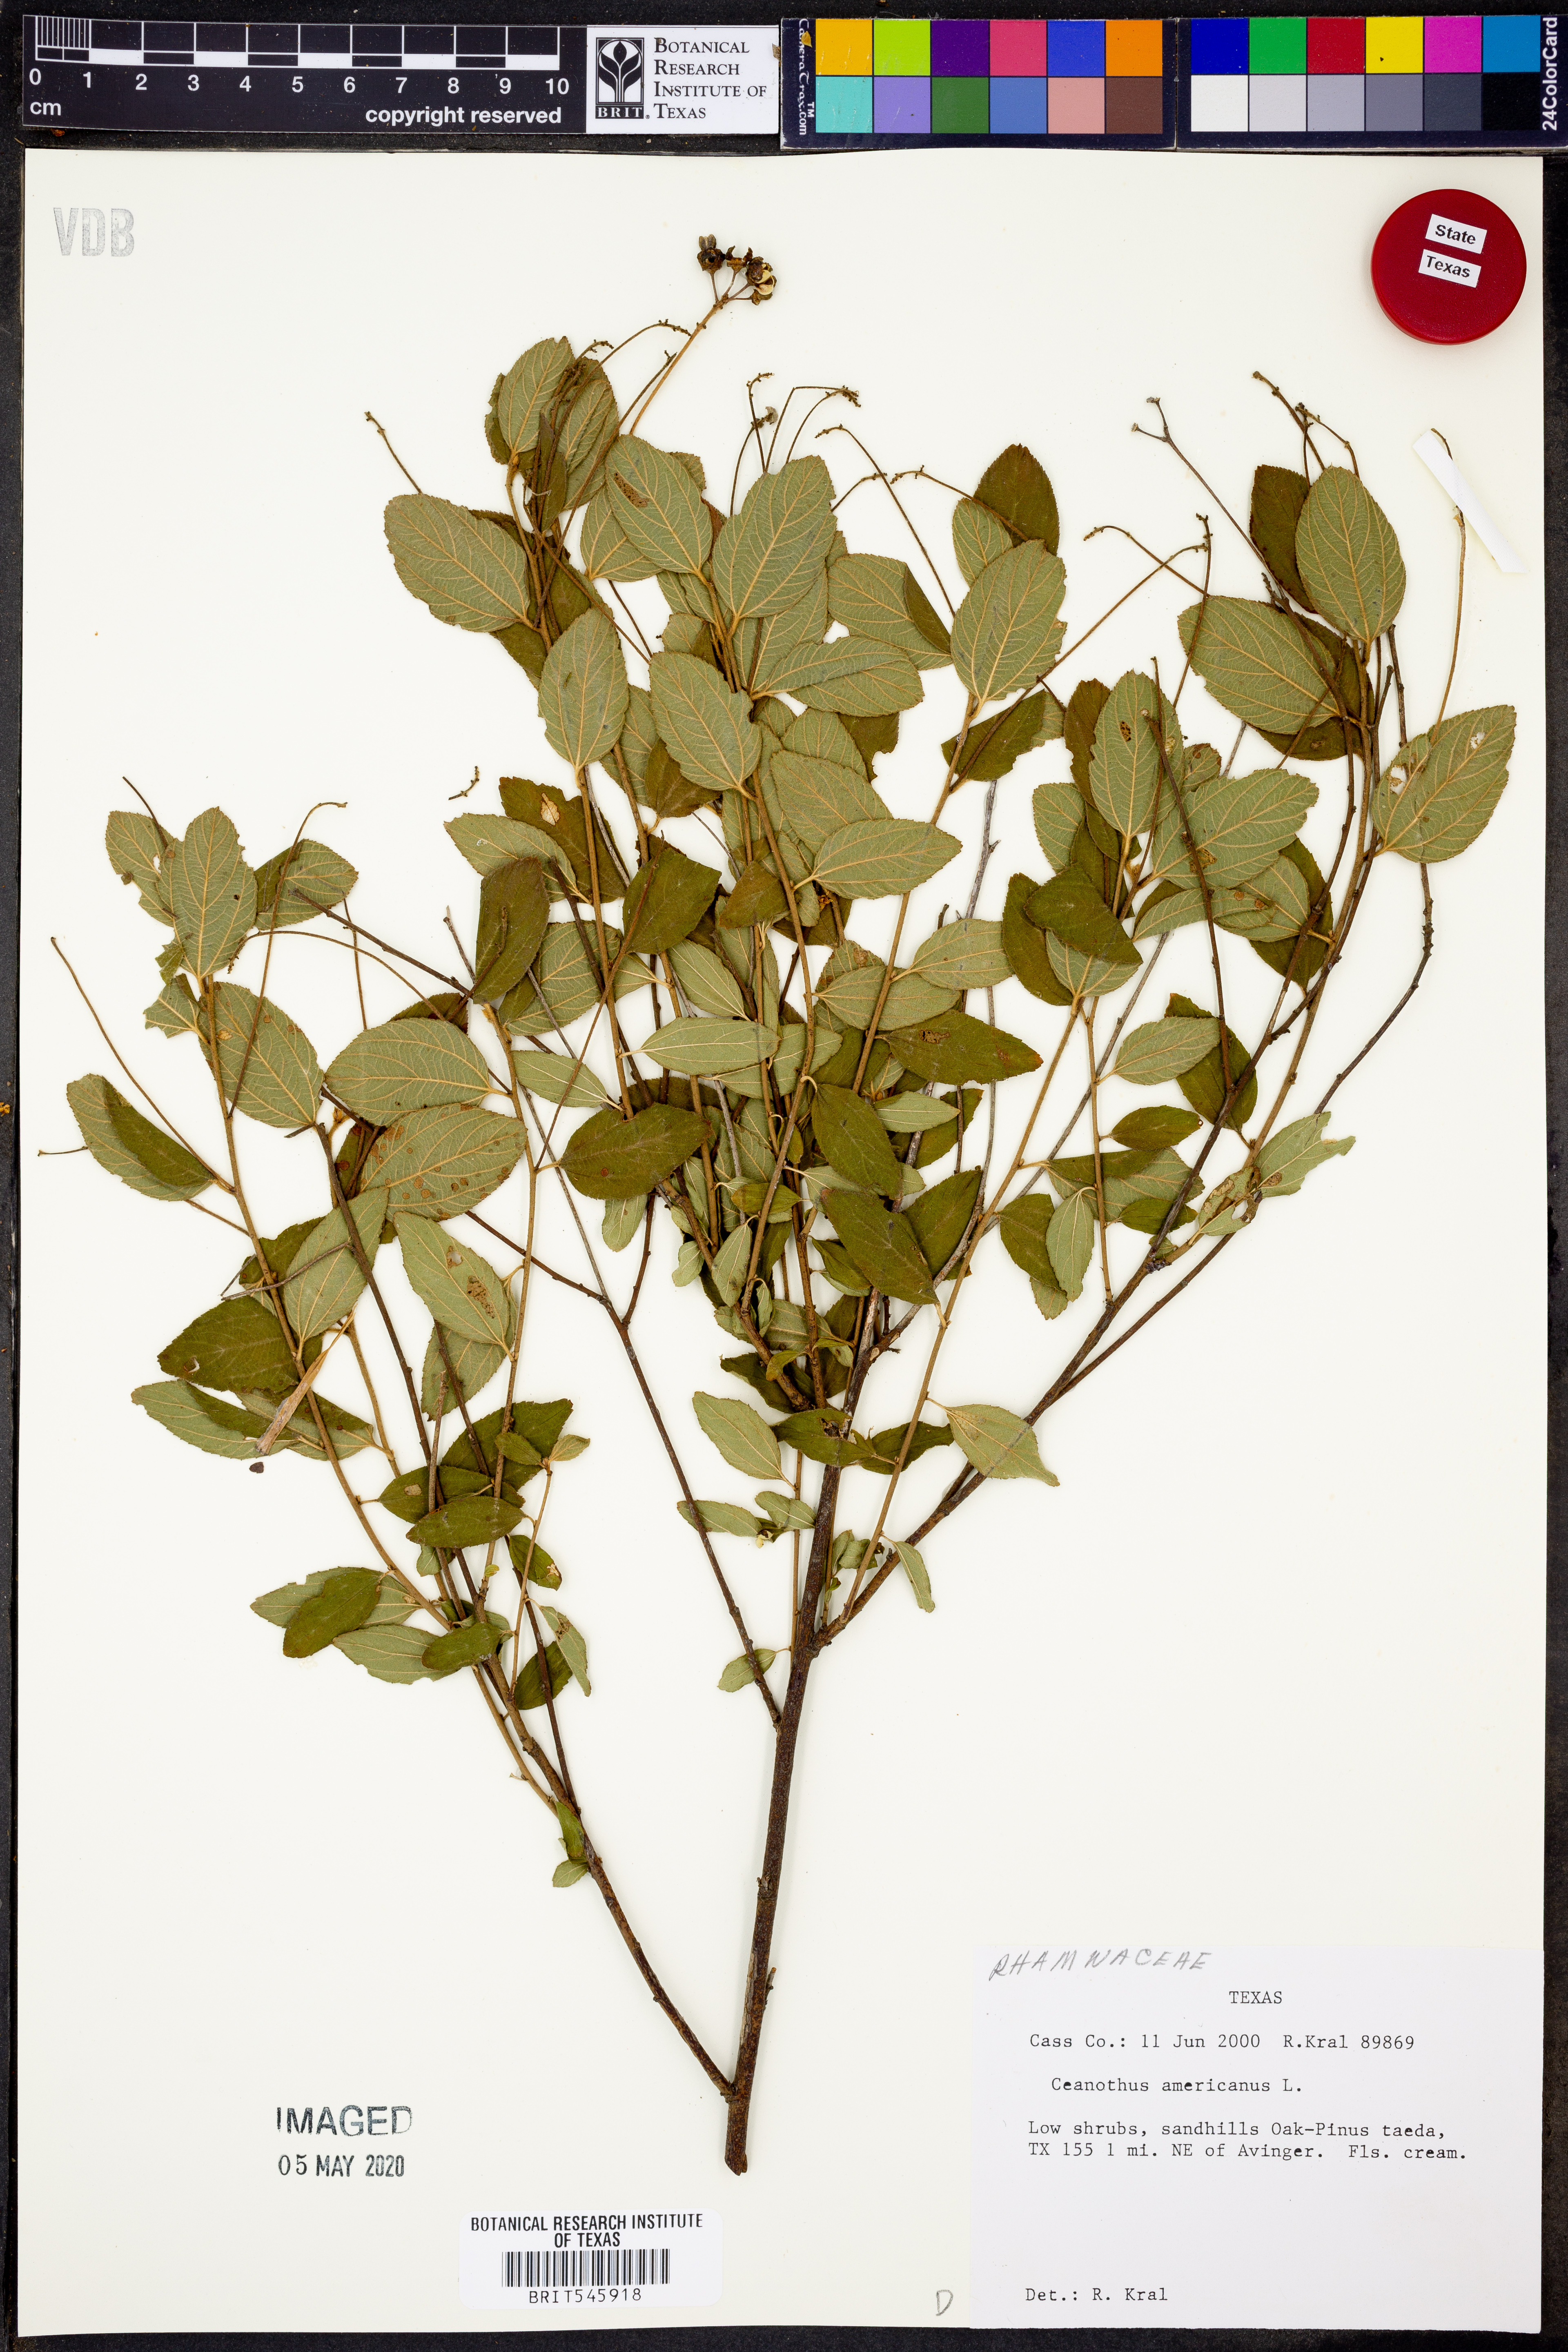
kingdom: Plantae
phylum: Tracheophyta
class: Magnoliopsida
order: Rosales
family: Rhamnaceae
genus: Ceanothus
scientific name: Ceanothus americanus
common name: Redroot
